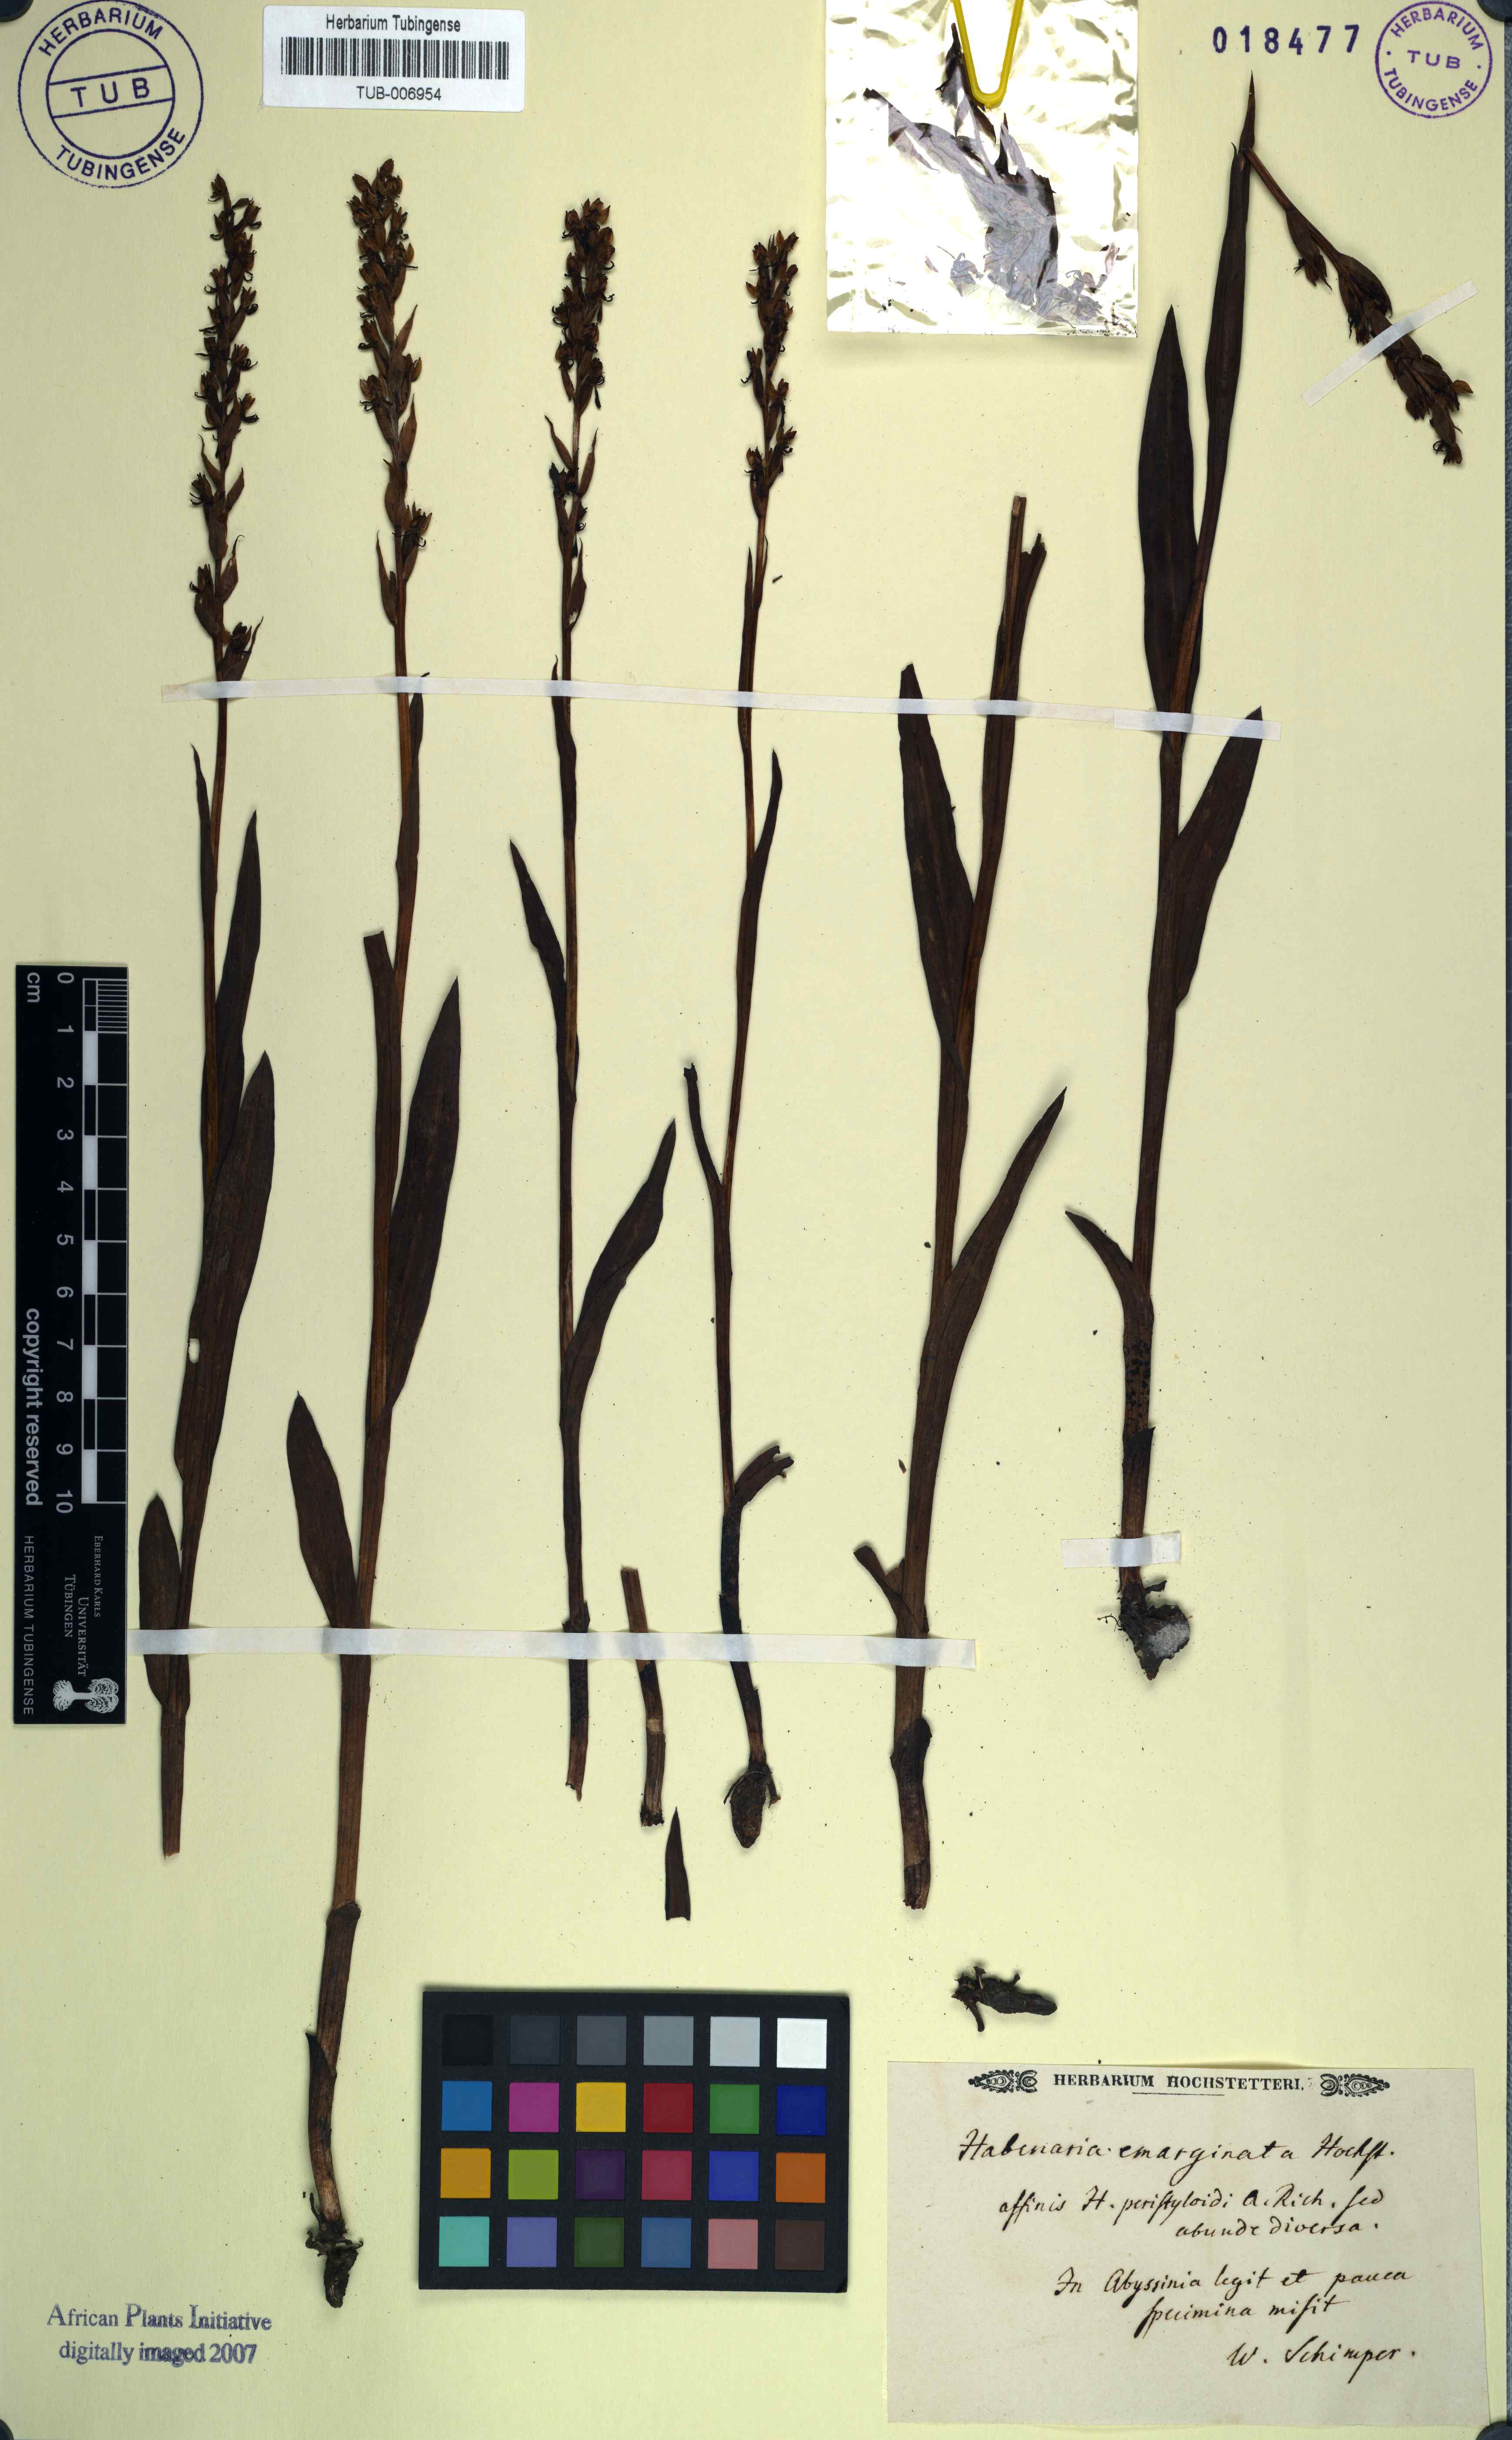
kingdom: Plantae
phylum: Tracheophyta
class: Liliopsida
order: Asparagales
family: Orchidaceae
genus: Habenaria
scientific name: Habenaria
